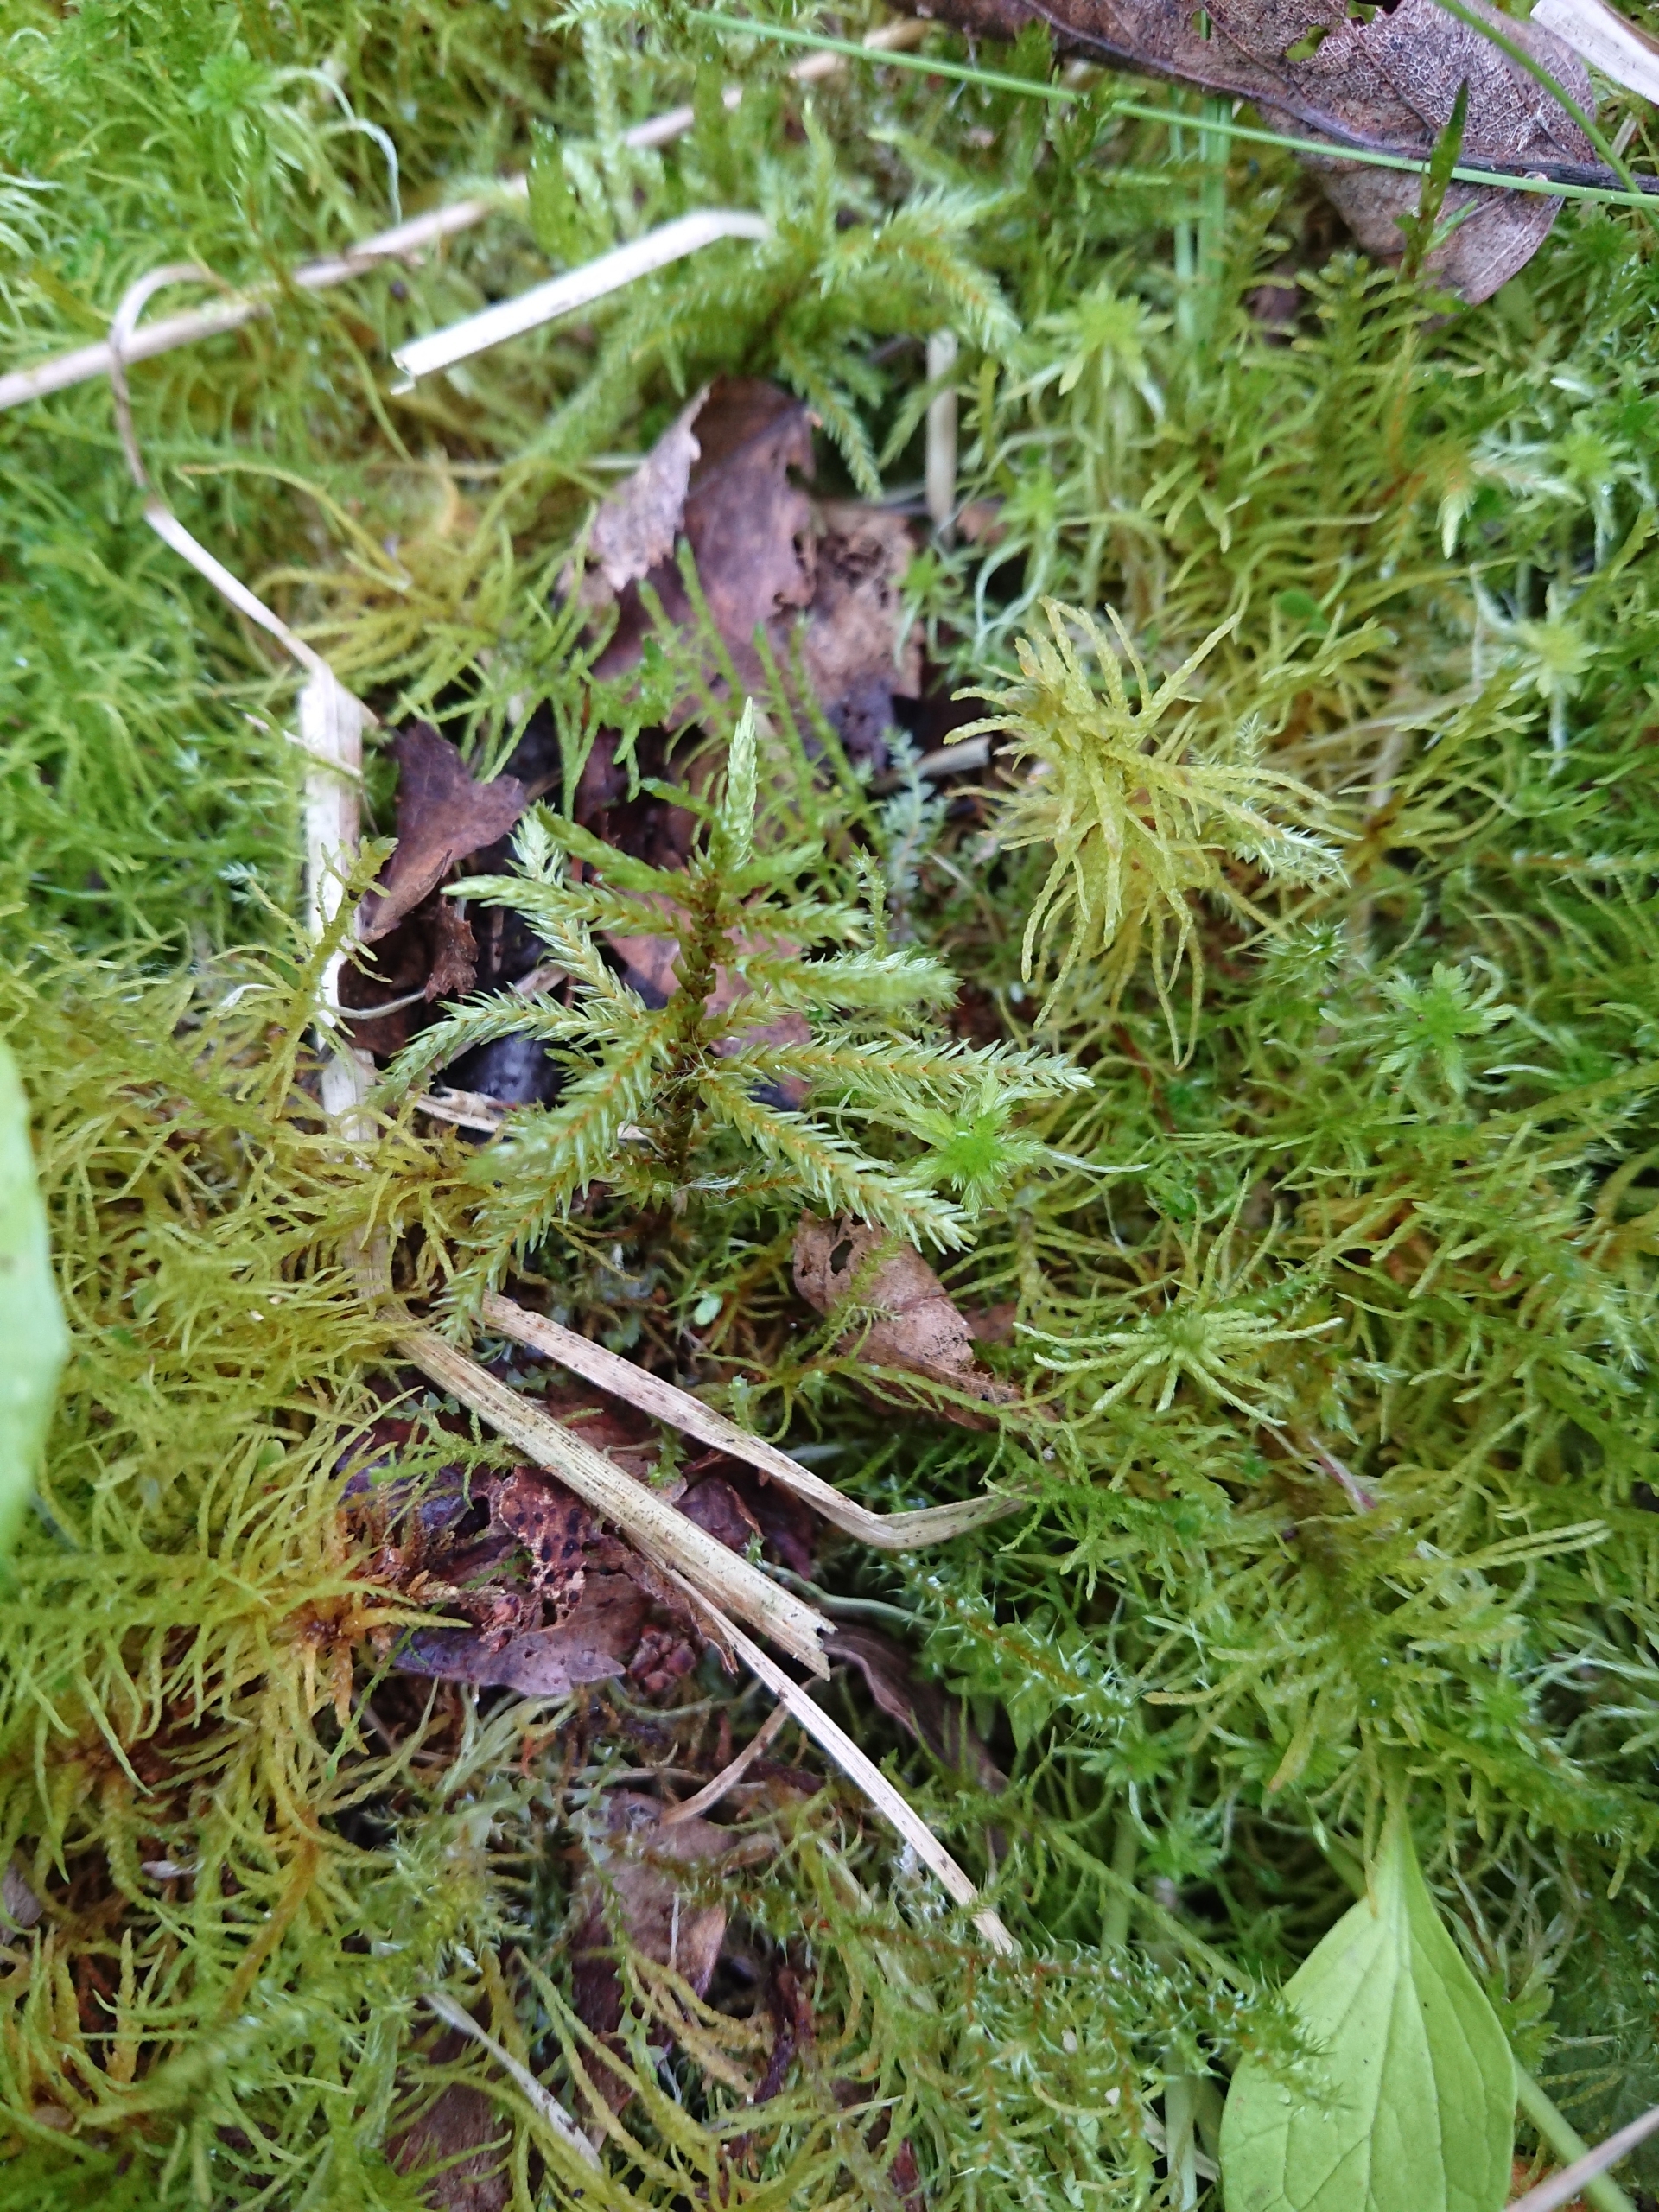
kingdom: Plantae
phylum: Bryophyta
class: Bryopsida
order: Hypnales
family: Climaciaceae
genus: Climacium
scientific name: Climacium dendroides
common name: Stor engkost
